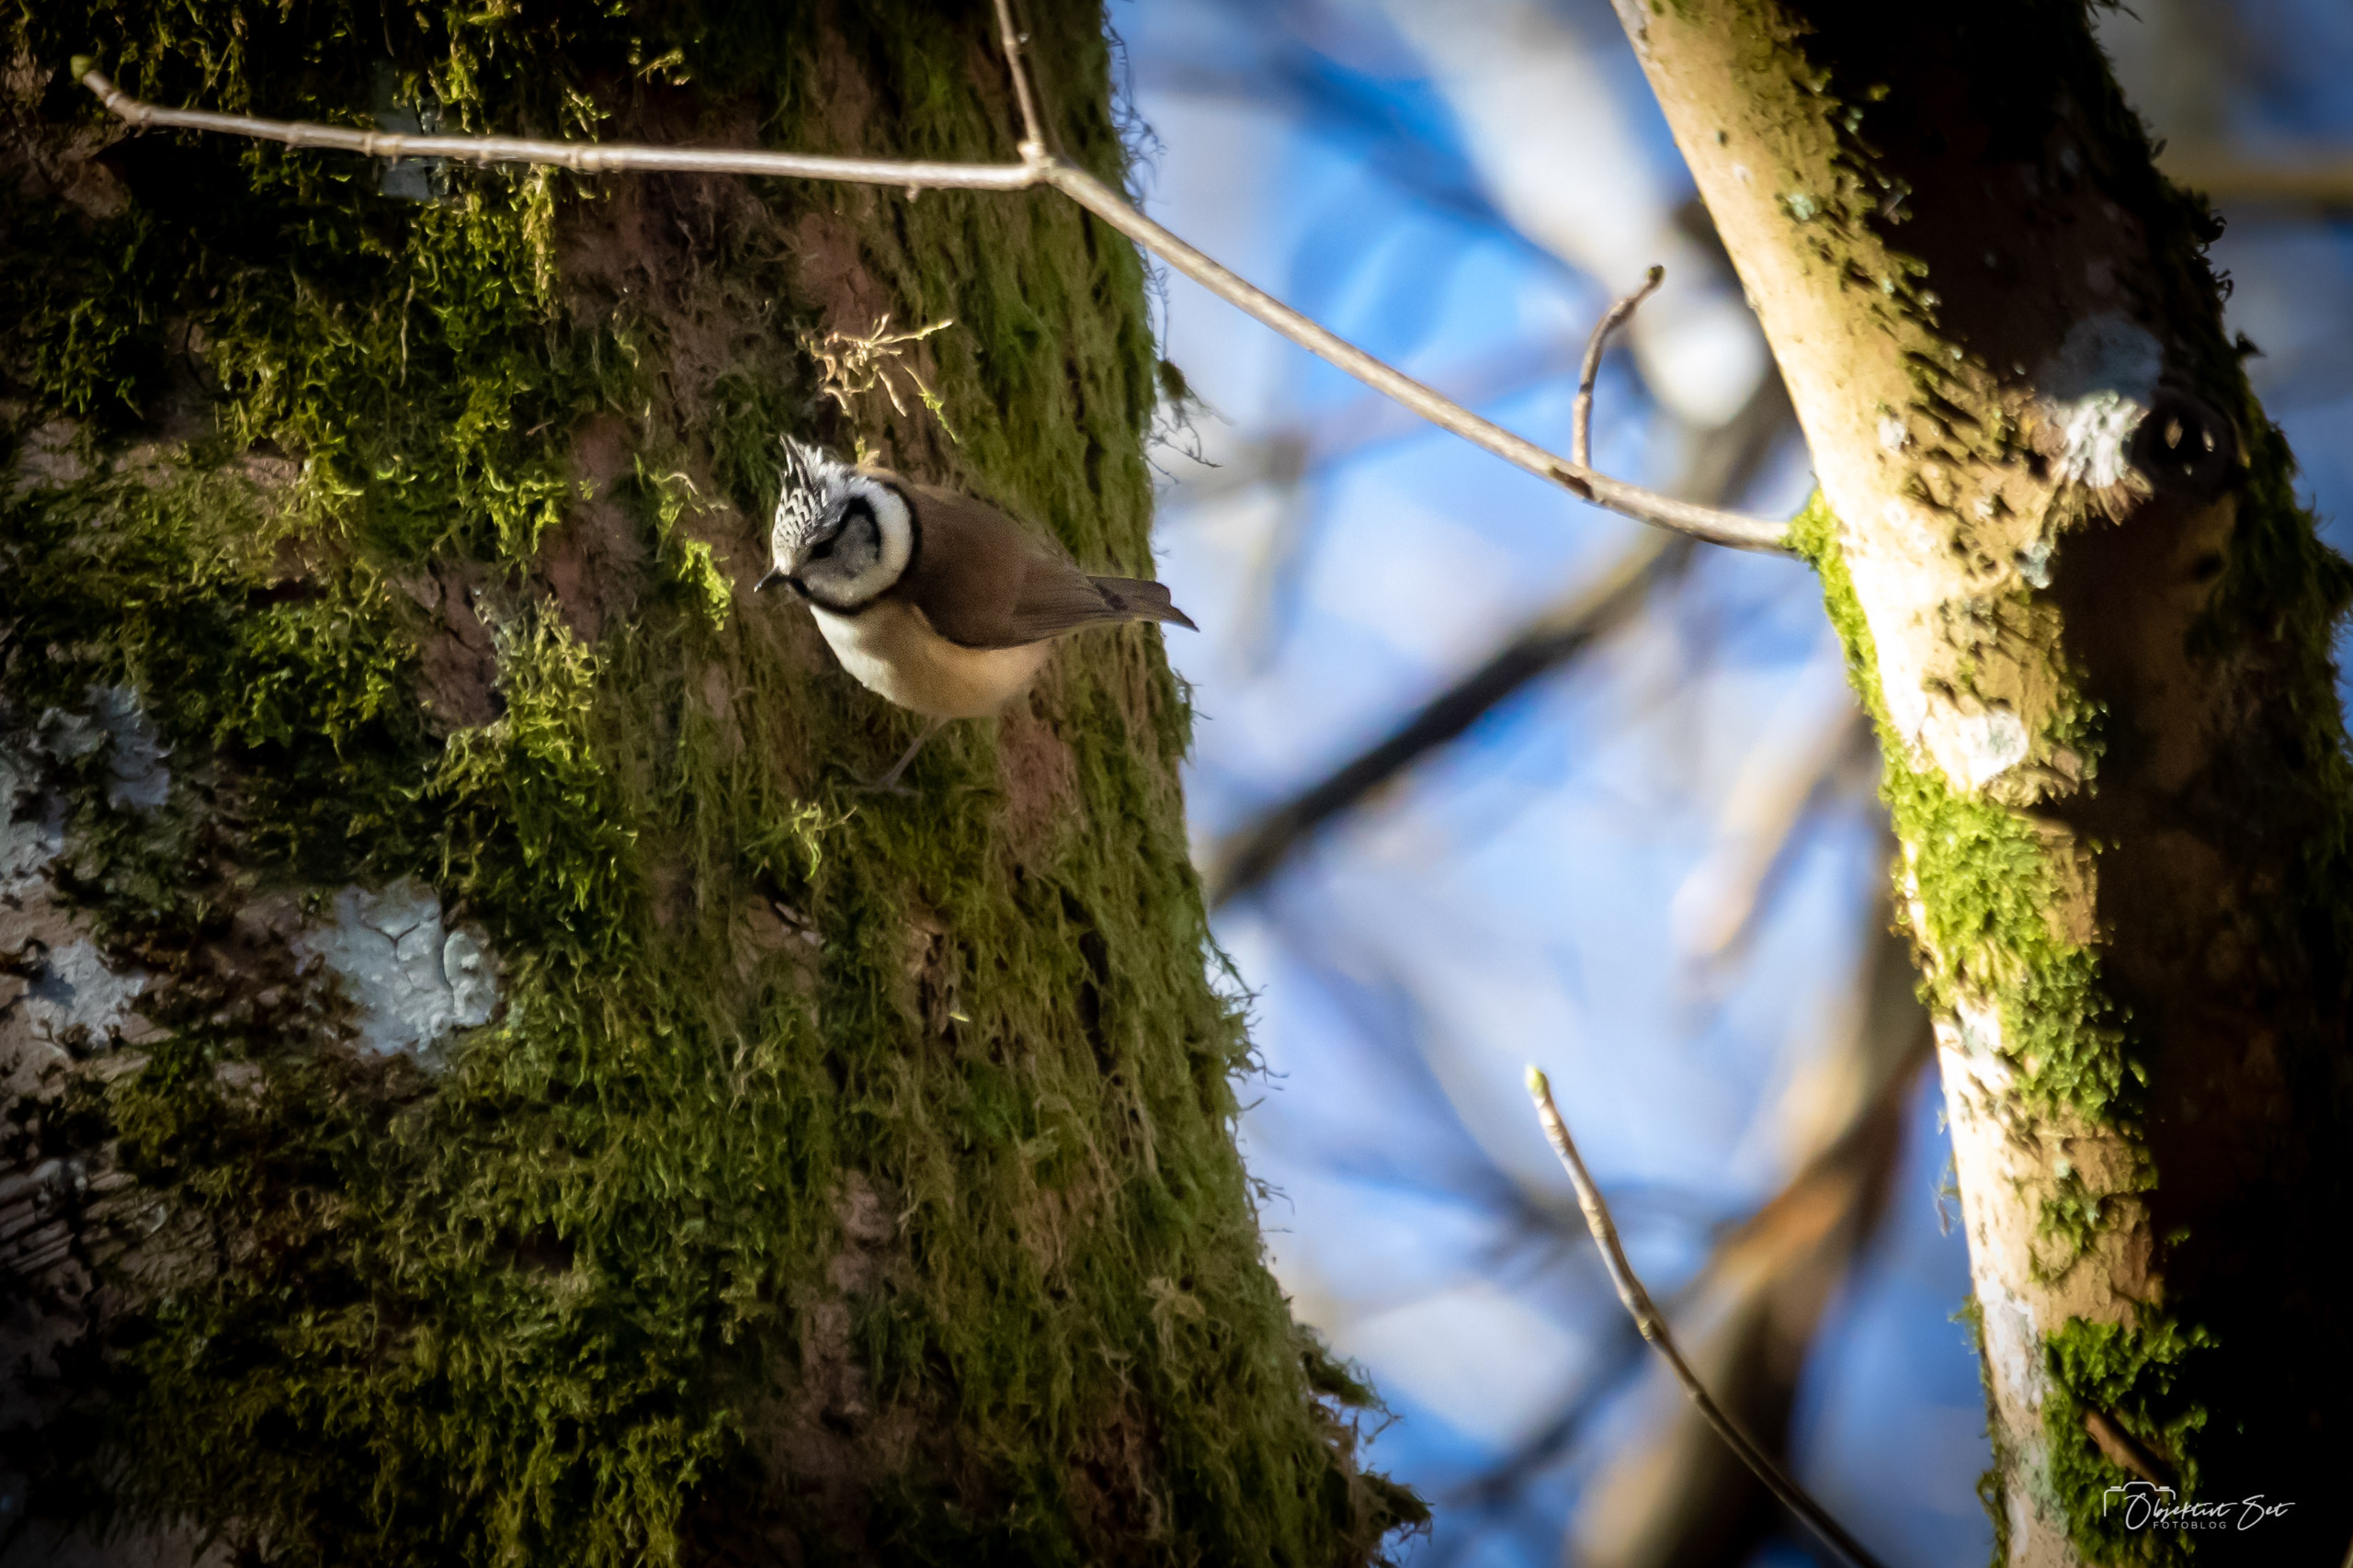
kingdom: Animalia
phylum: Chordata
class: Aves
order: Passeriformes
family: Paridae
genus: Lophophanes
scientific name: Lophophanes cristatus
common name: Topmejse
